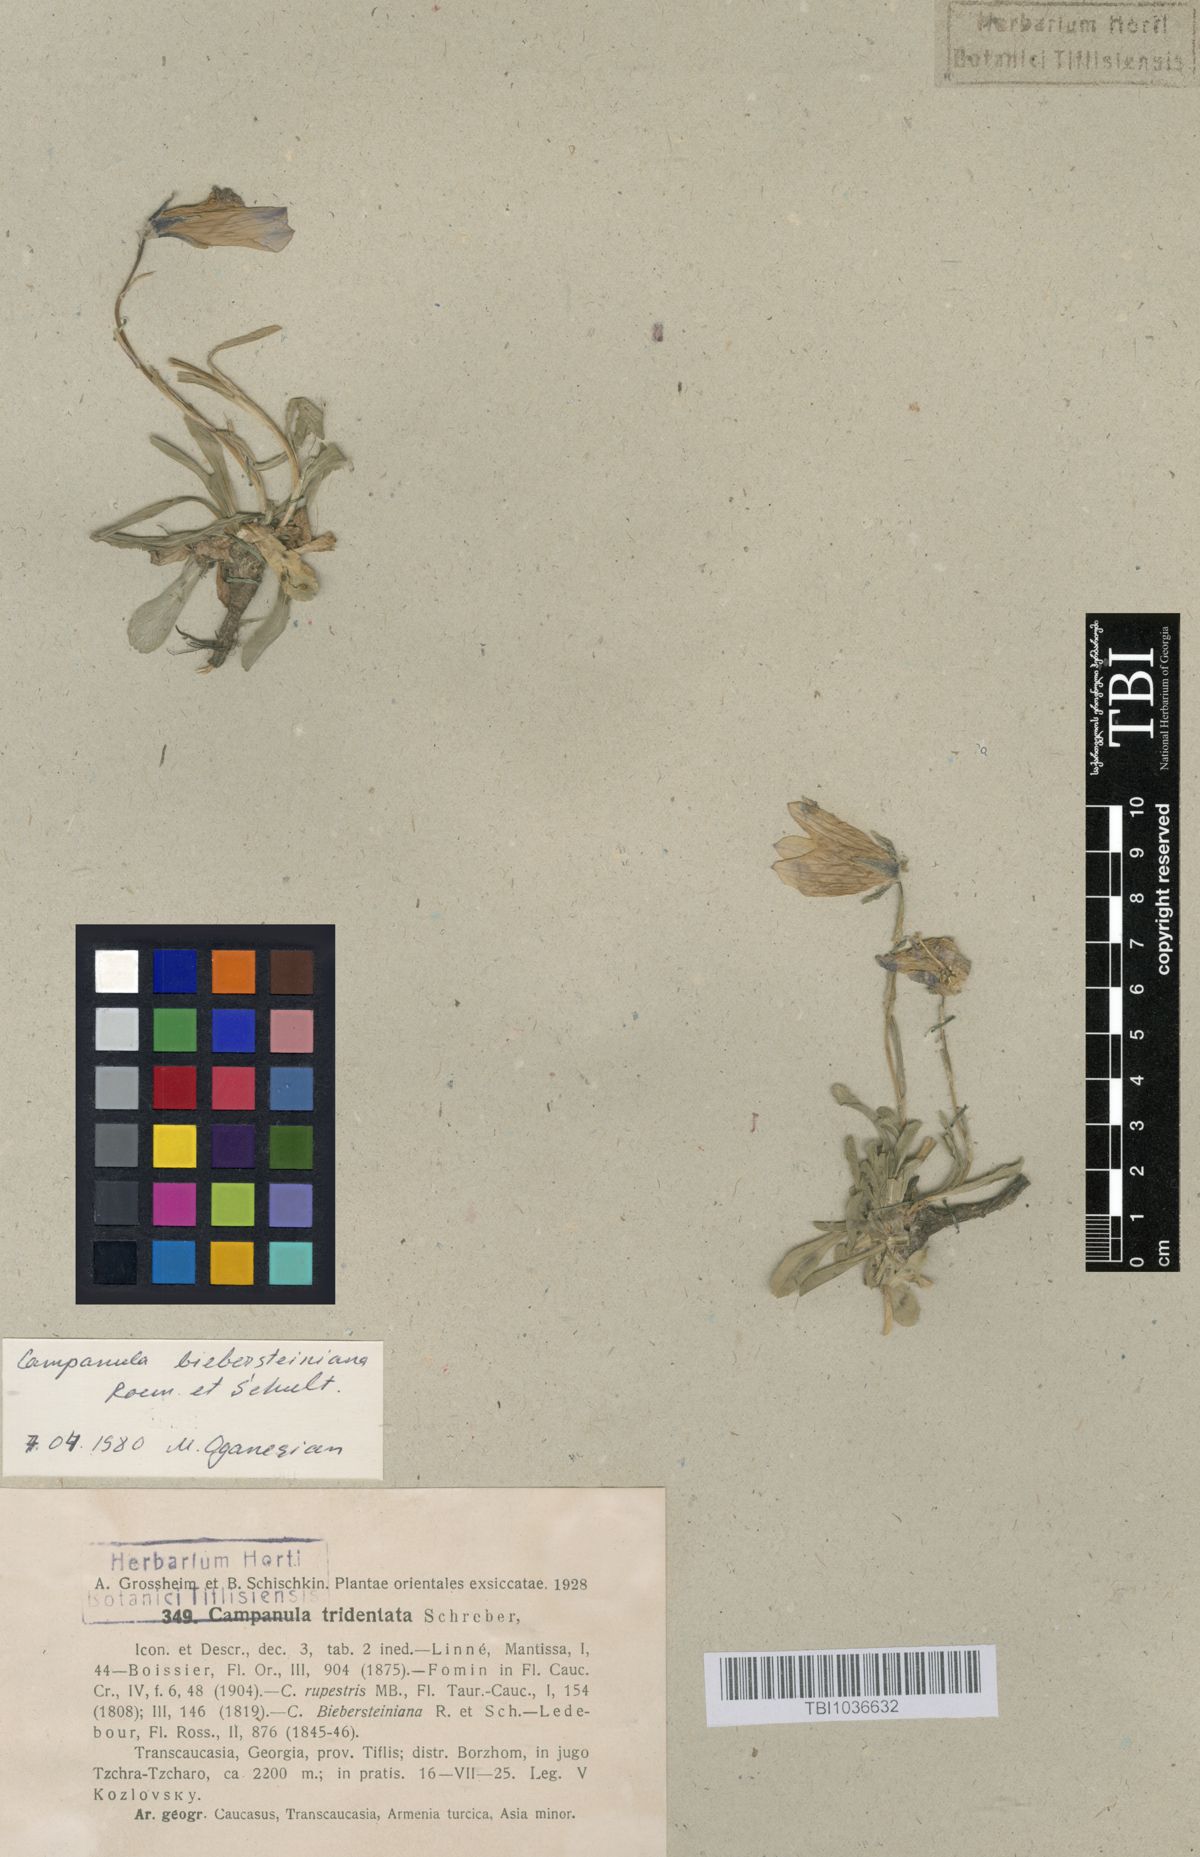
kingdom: Plantae
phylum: Tracheophyta
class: Magnoliopsida
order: Asterales
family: Campanulaceae
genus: Campanula
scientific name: Campanula tridentata
